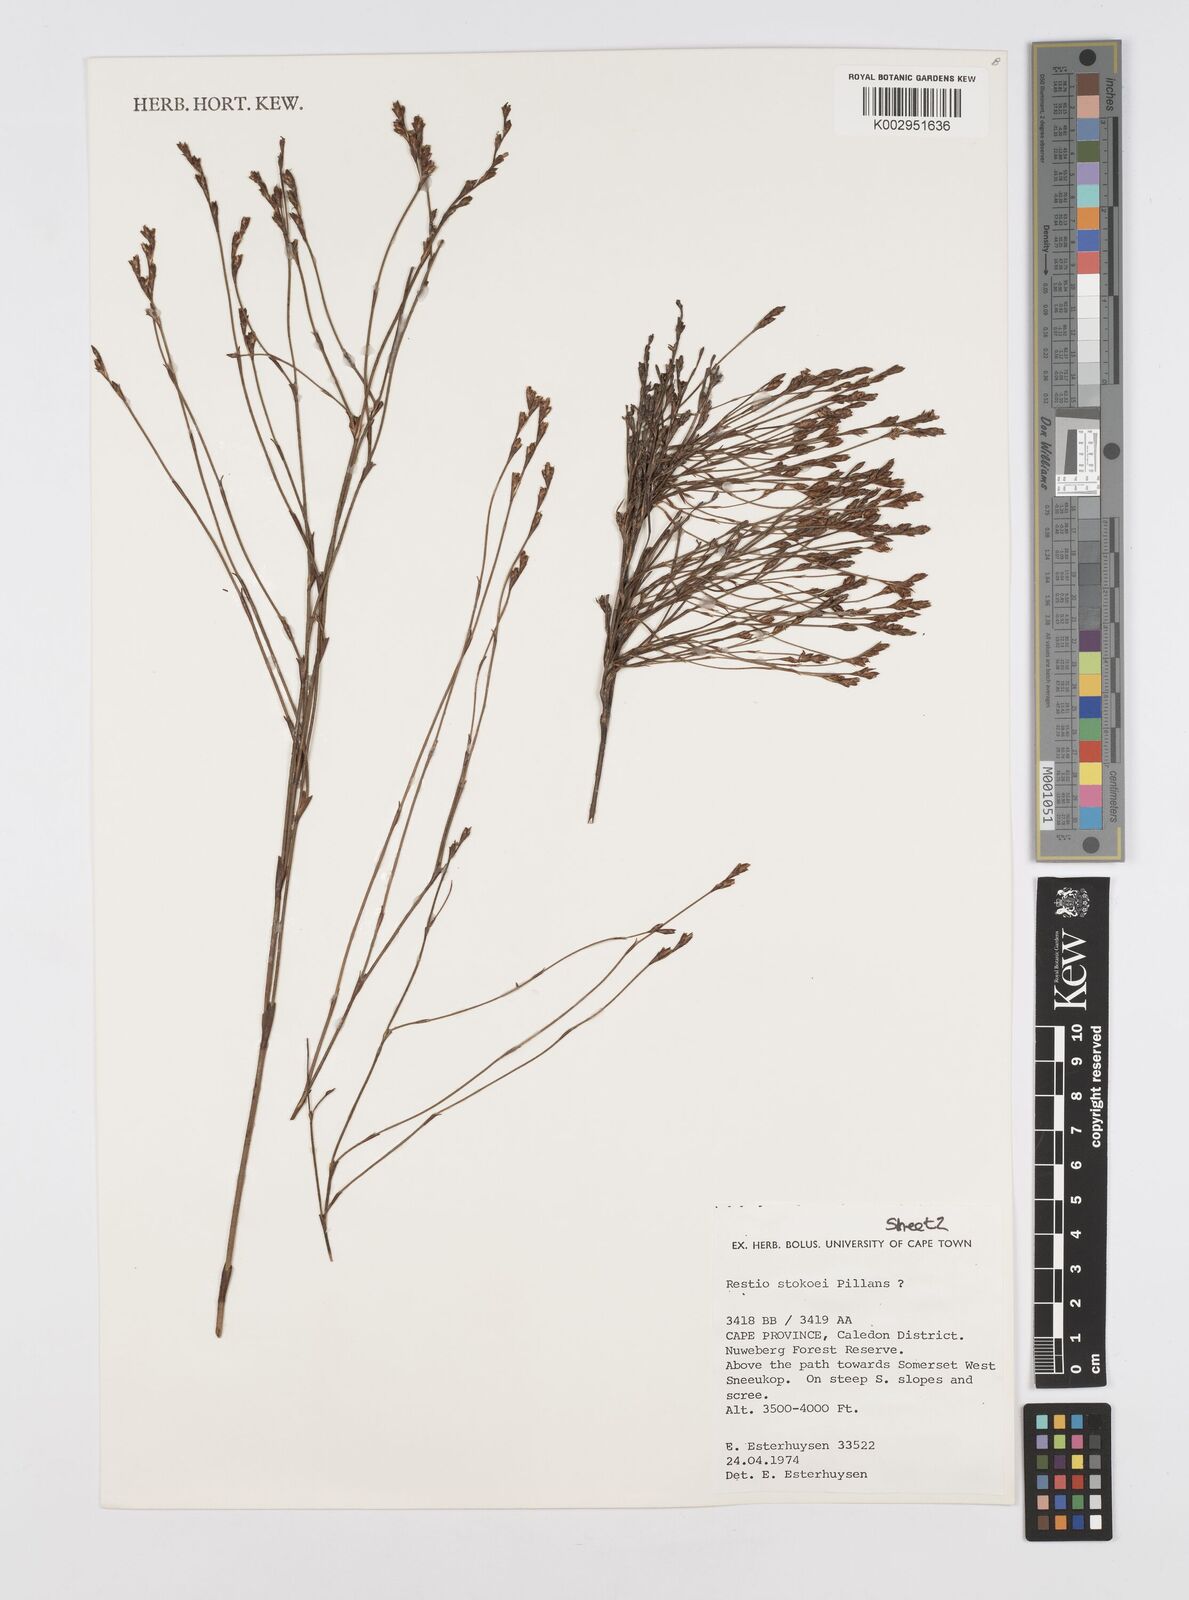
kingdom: Plantae
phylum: Tracheophyta
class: Liliopsida
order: Poales
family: Restionaceae
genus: Restio
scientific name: Restio stokoei
